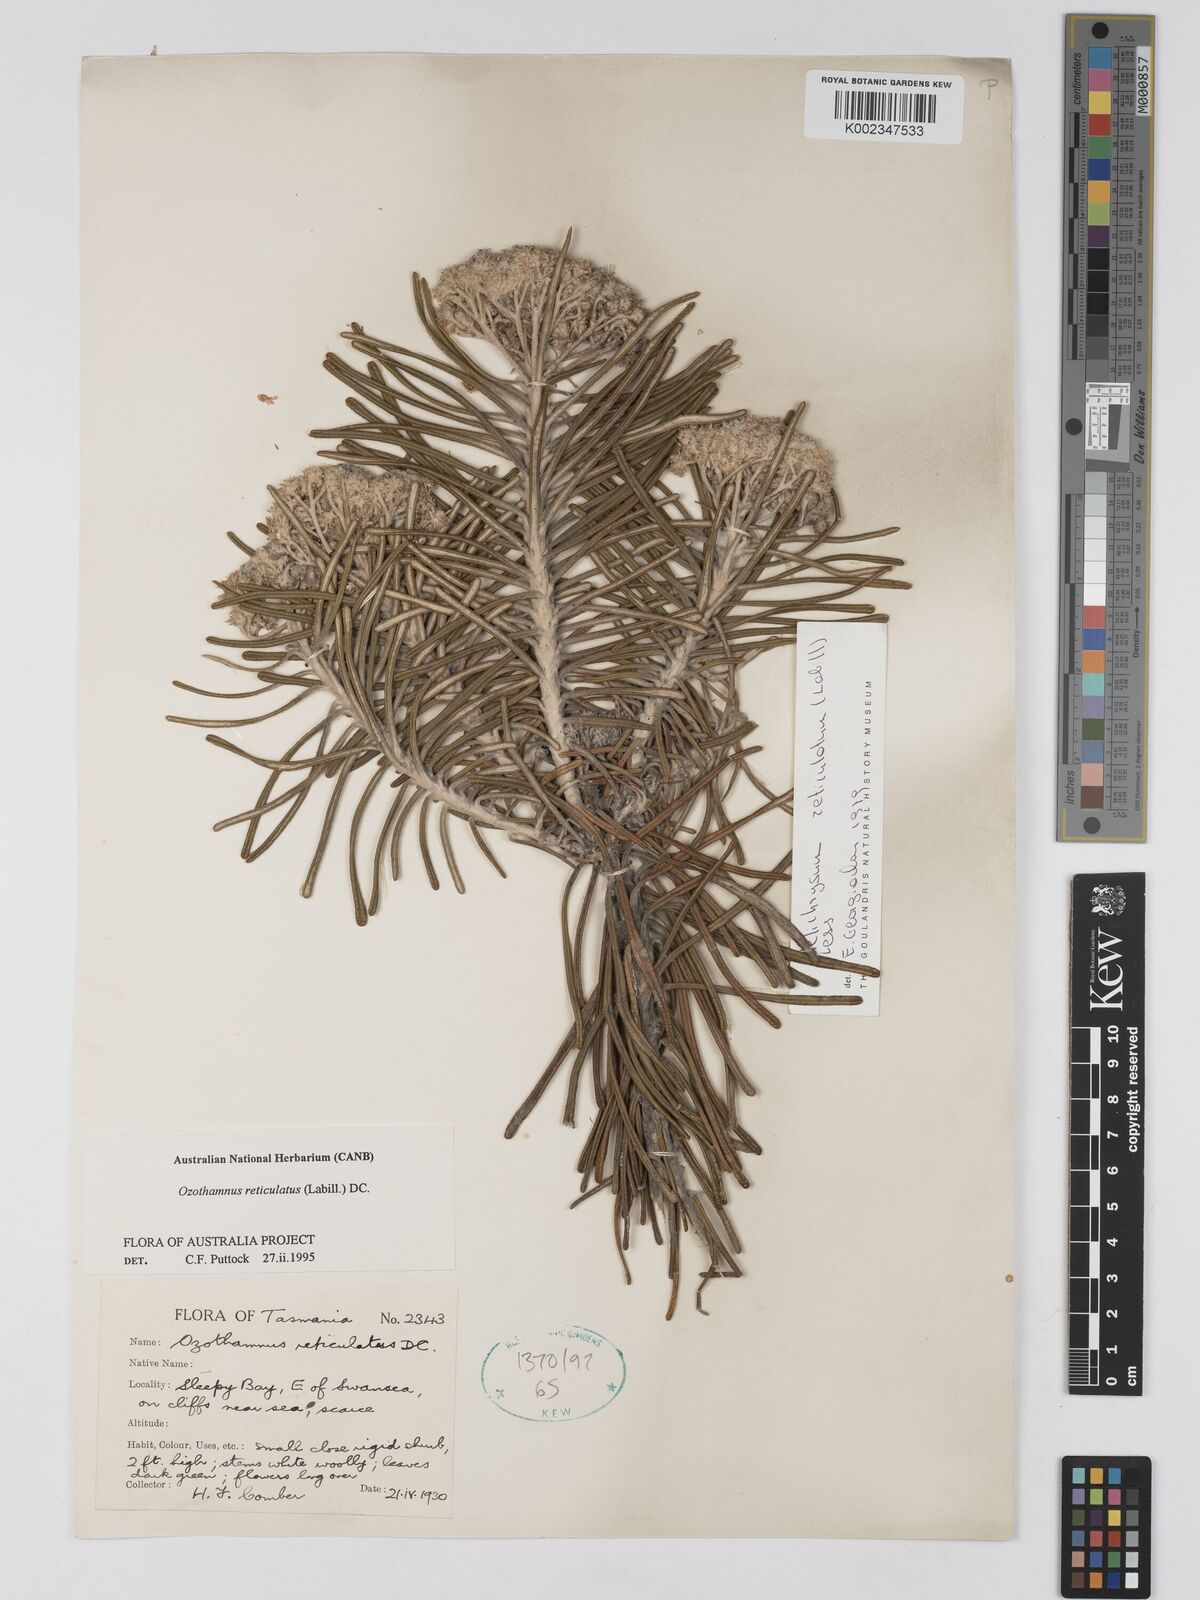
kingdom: Plantae
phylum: Tracheophyta
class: Magnoliopsida
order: Asterales
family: Asteraceae
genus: Ozothamnus
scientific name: Ozothamnus reticulatus
